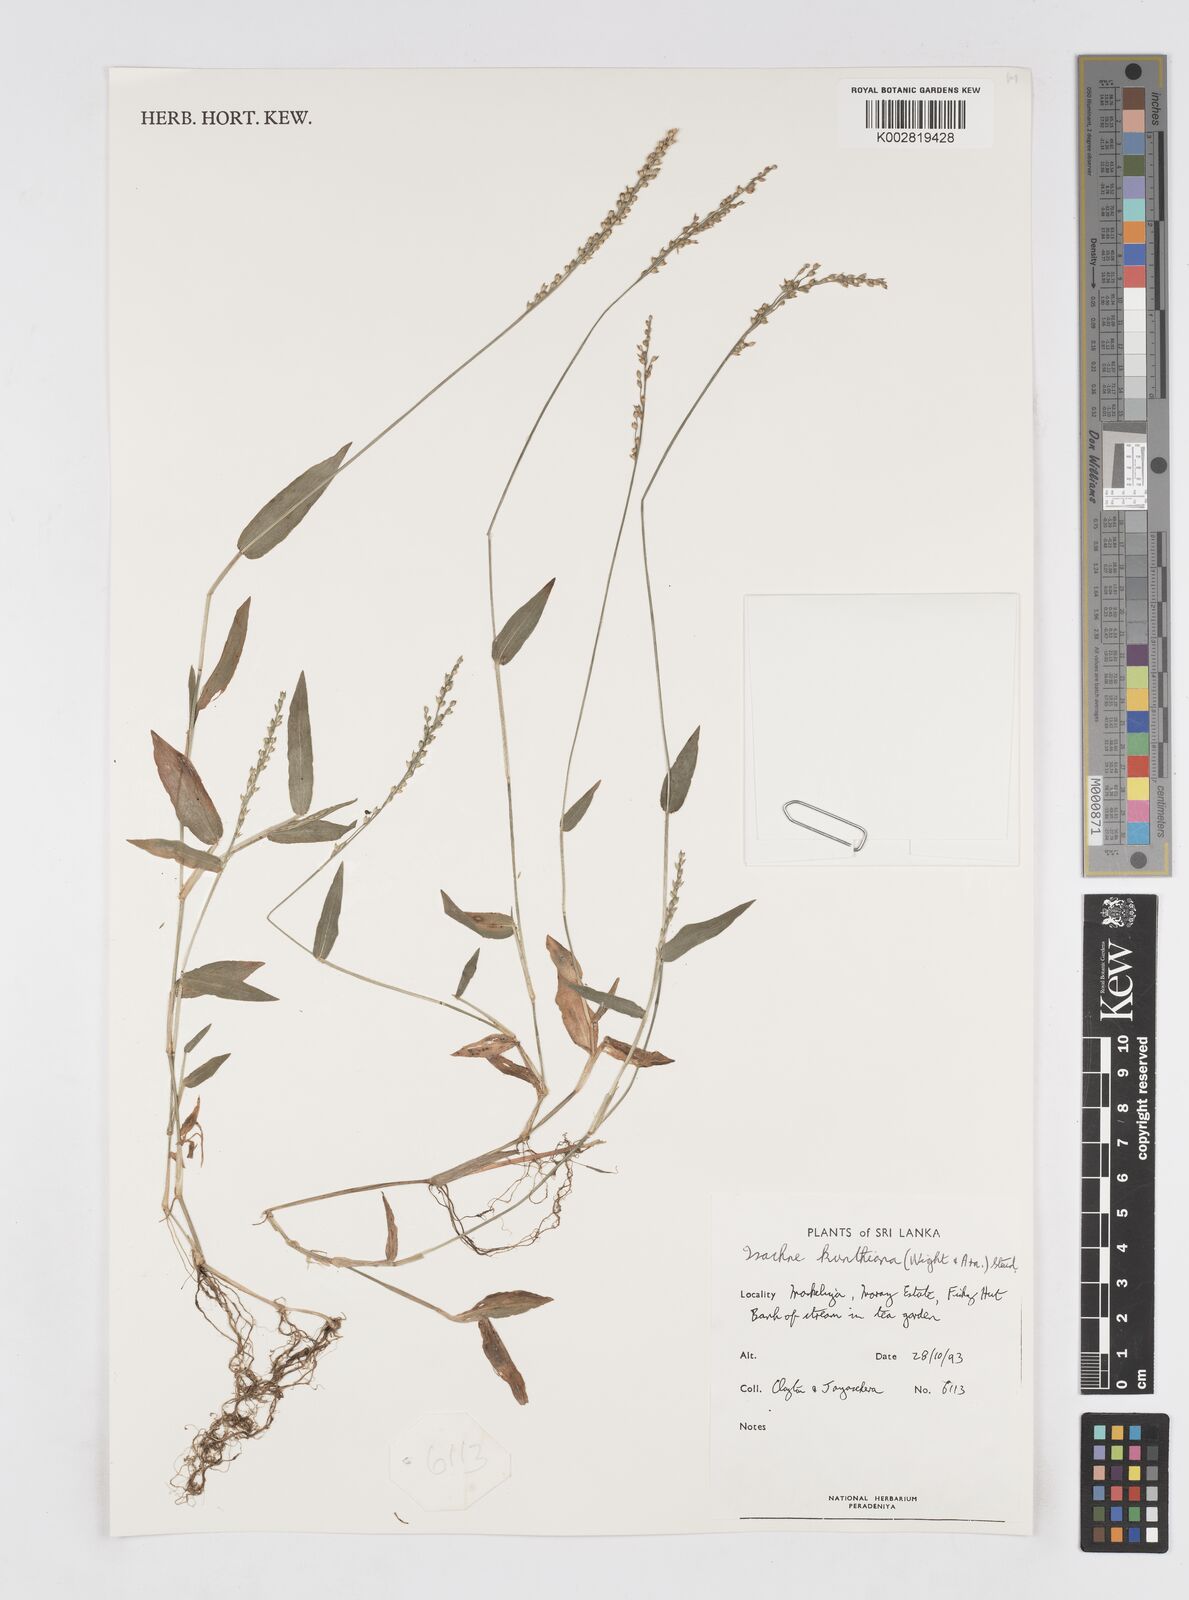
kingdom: Plantae
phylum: Tracheophyta
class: Liliopsida
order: Poales
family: Poaceae
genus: Isachne
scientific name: Isachne kunthiana
